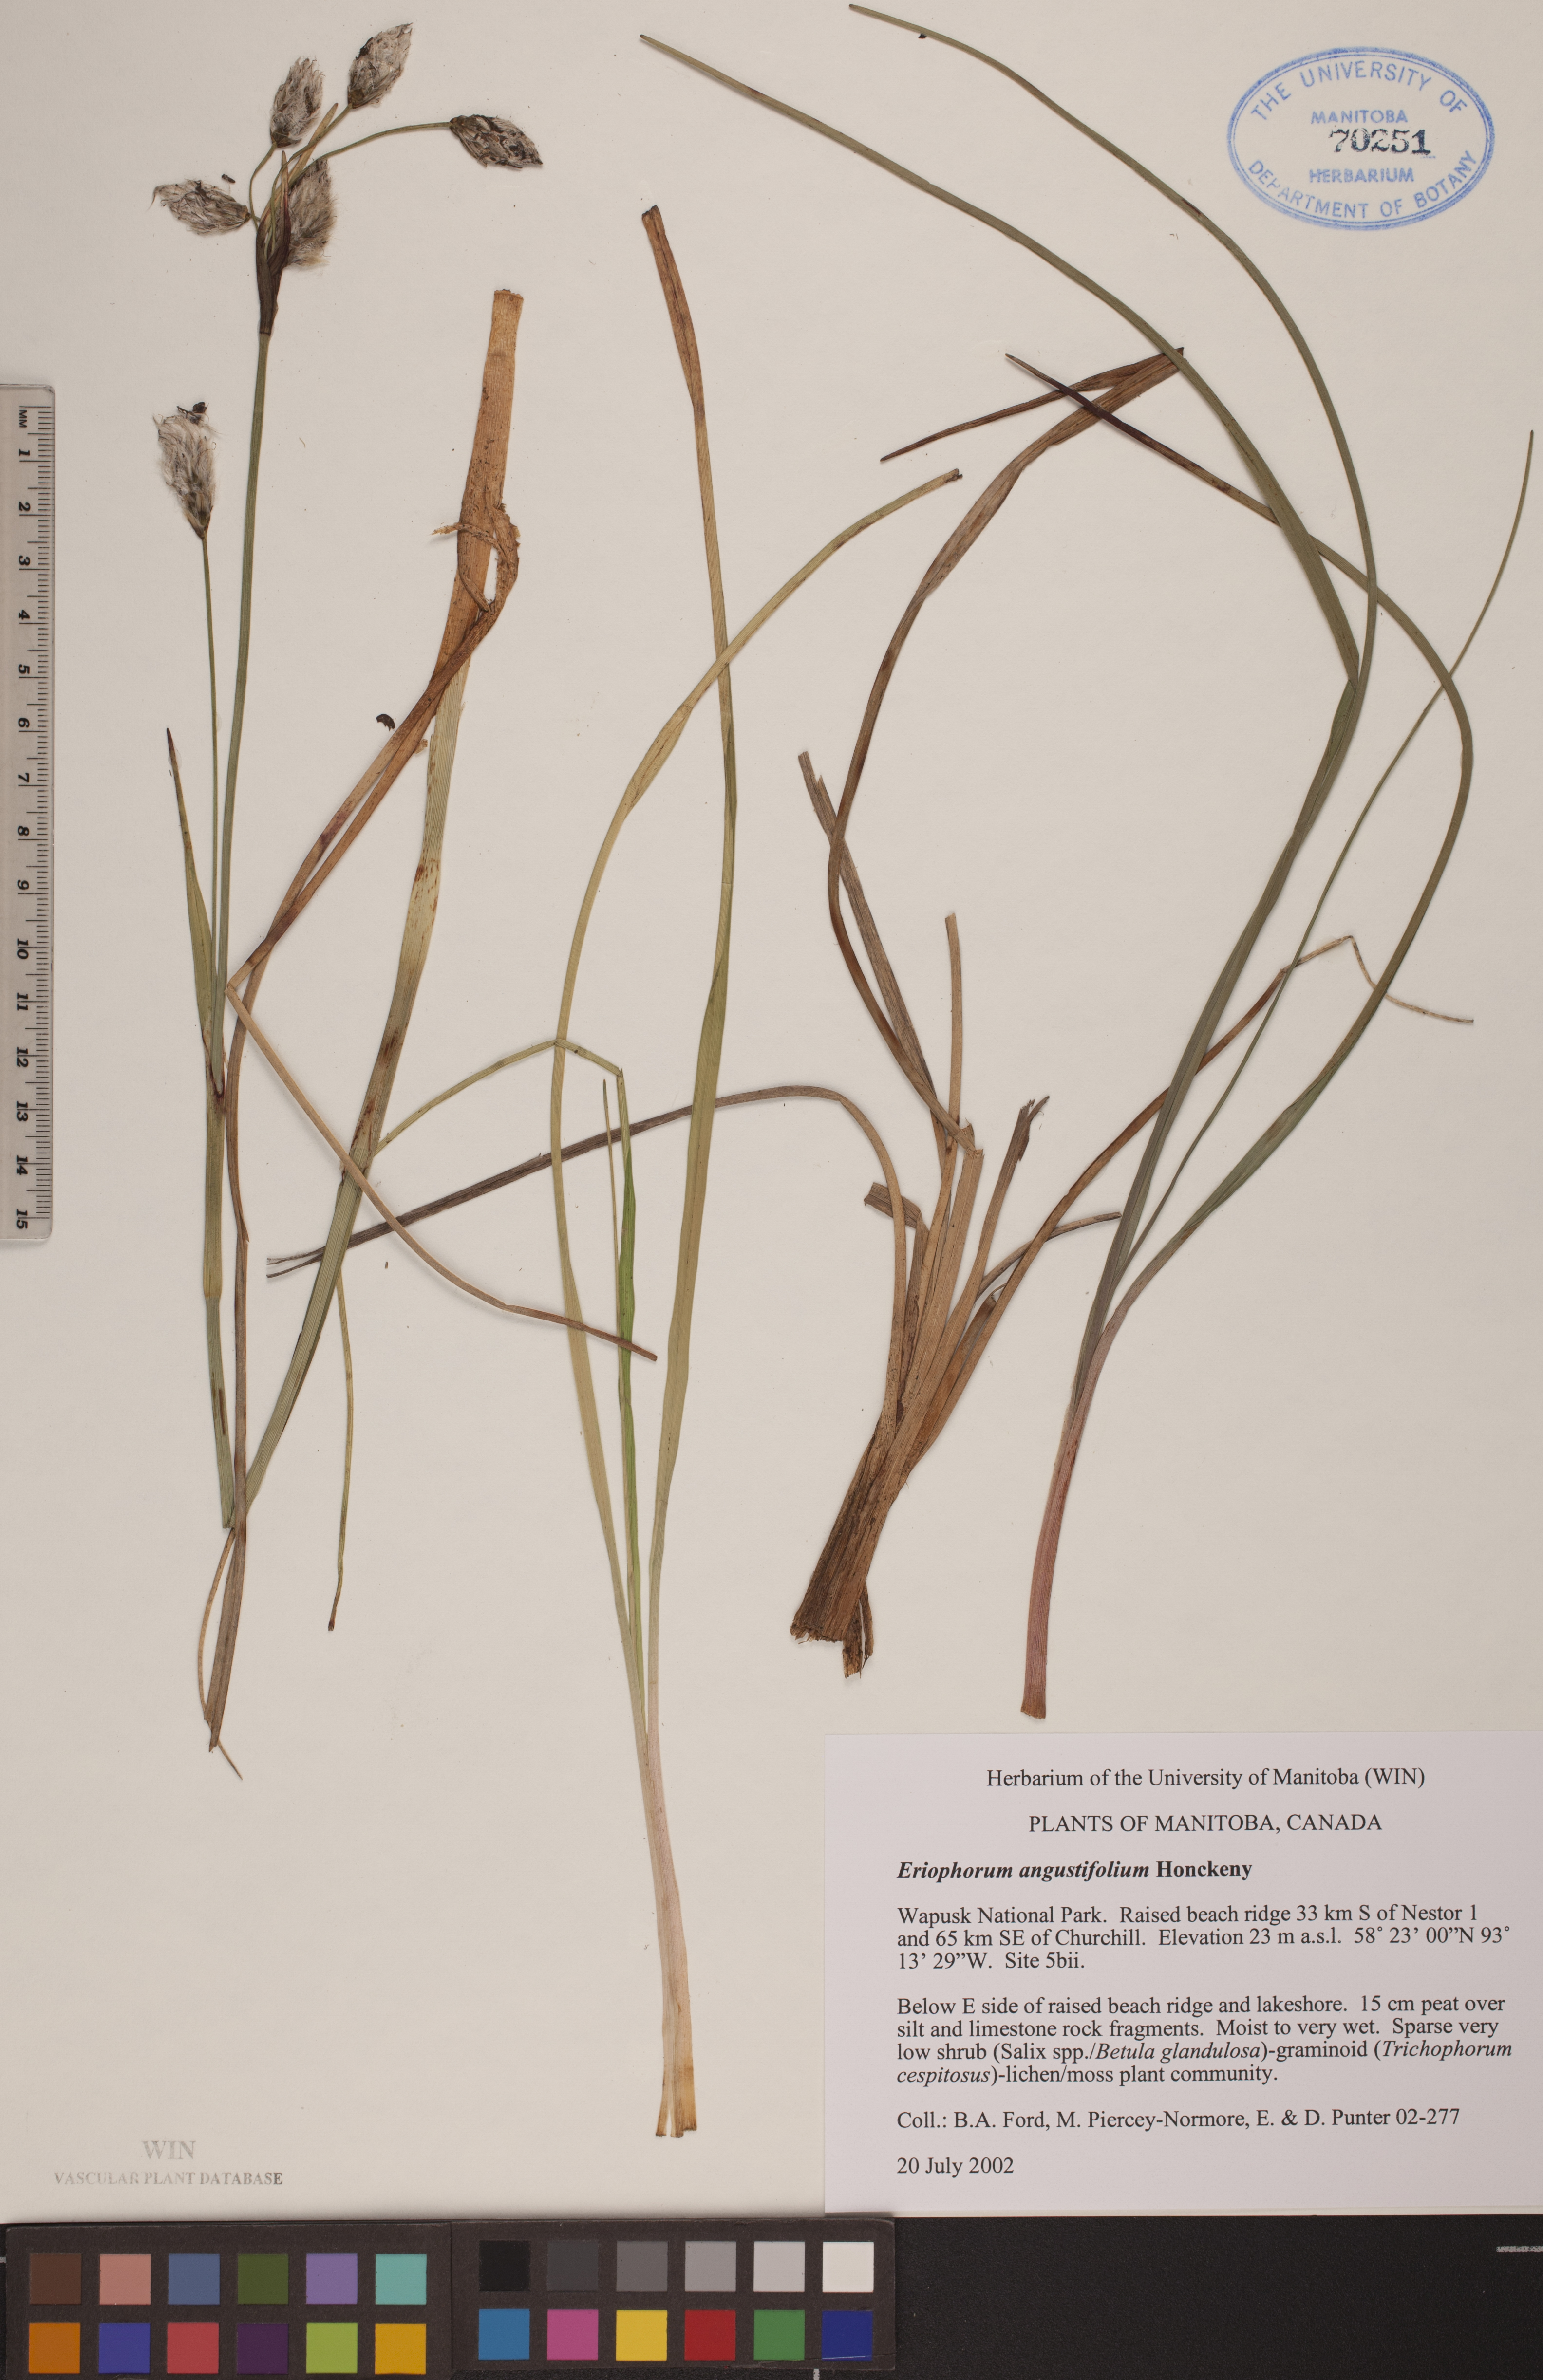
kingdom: Plantae
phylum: Tracheophyta
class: Liliopsida
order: Poales
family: Cyperaceae
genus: Eriophorum
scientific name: Eriophorum angustifolium
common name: Common cottongrass
